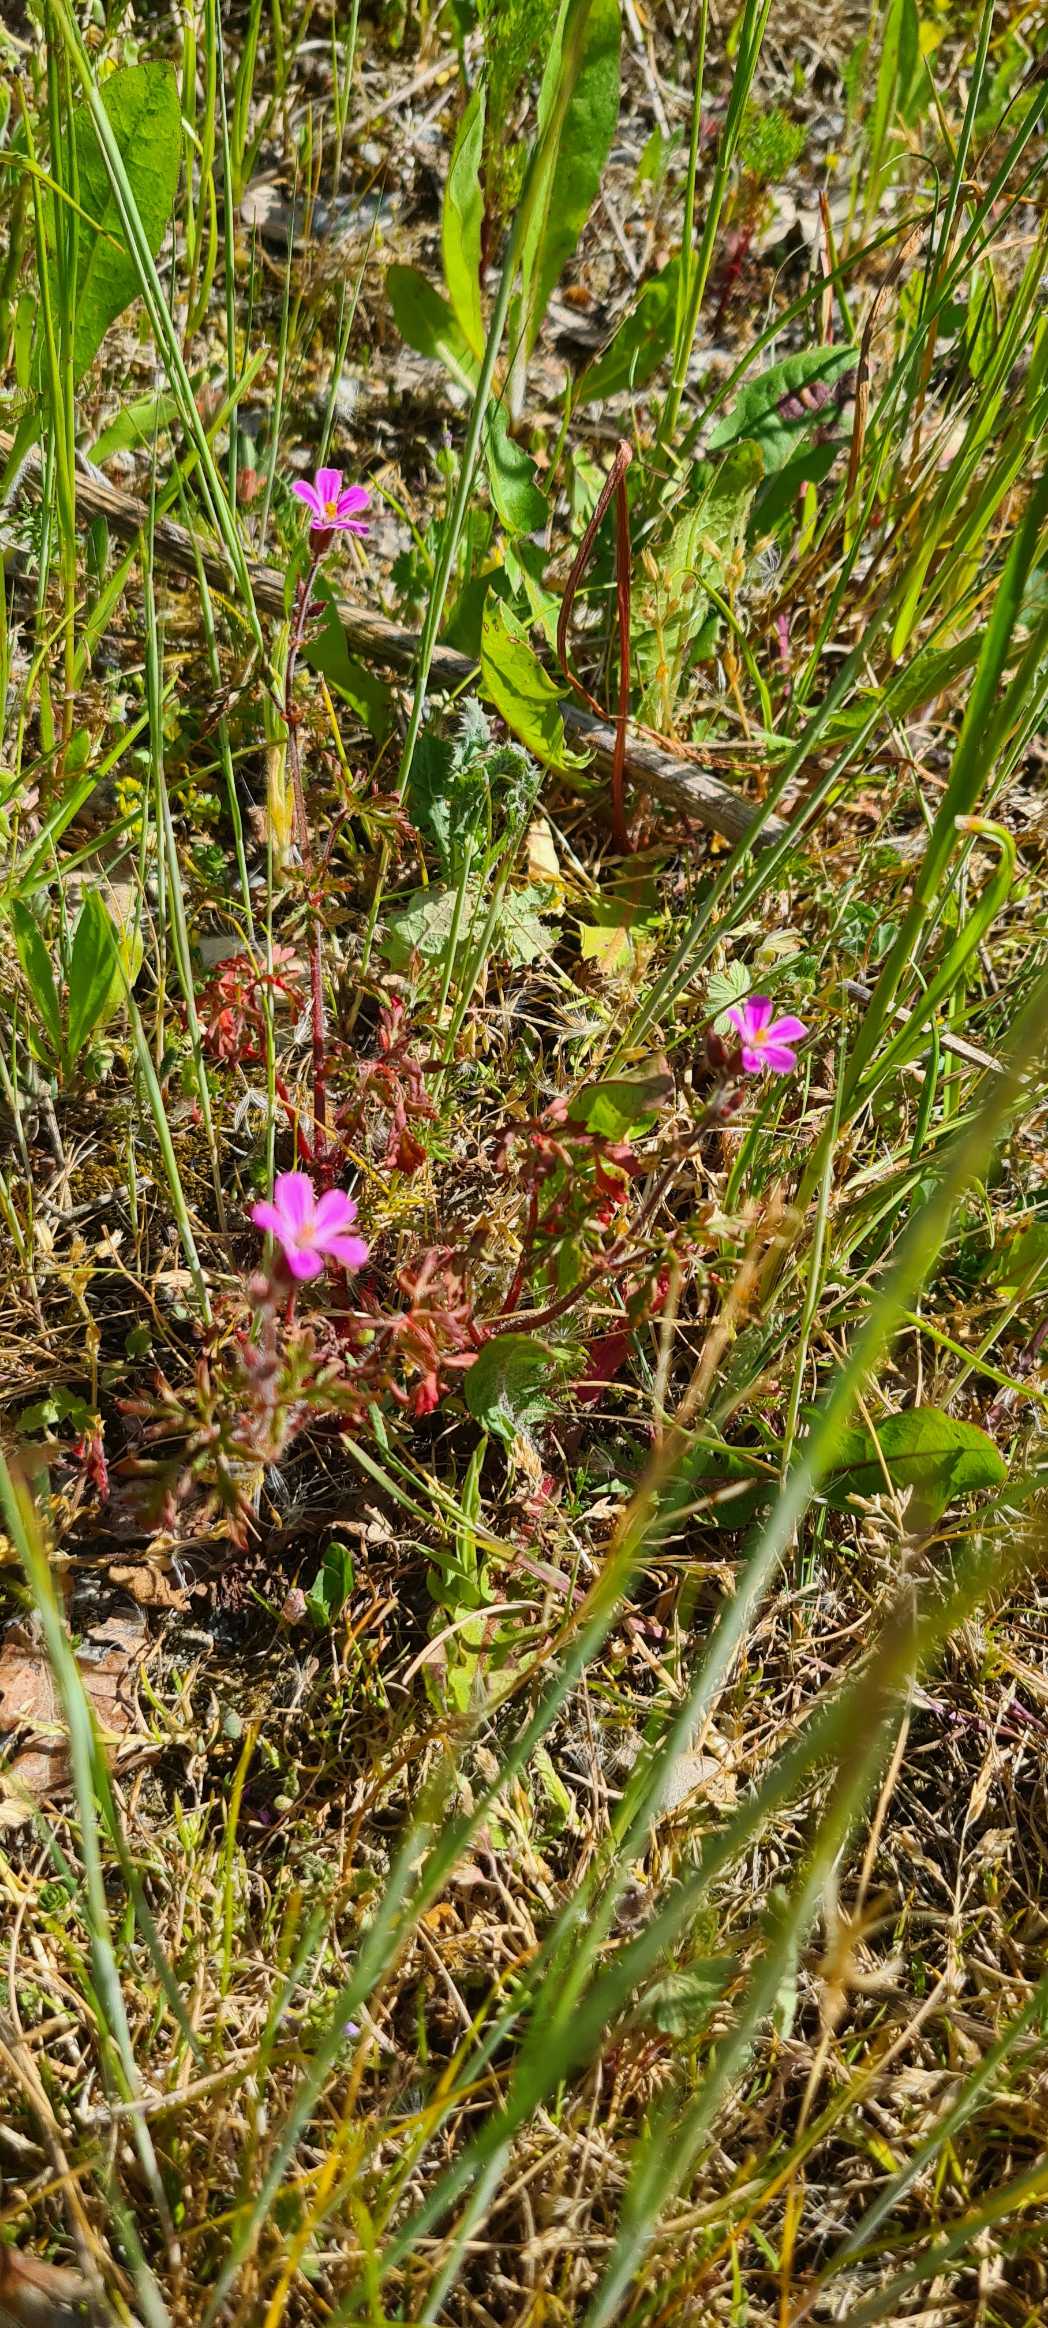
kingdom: Plantae
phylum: Tracheophyta
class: Magnoliopsida
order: Geraniales
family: Geraniaceae
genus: Geranium
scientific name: Geranium robertianum
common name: Stinkende storkenæb
